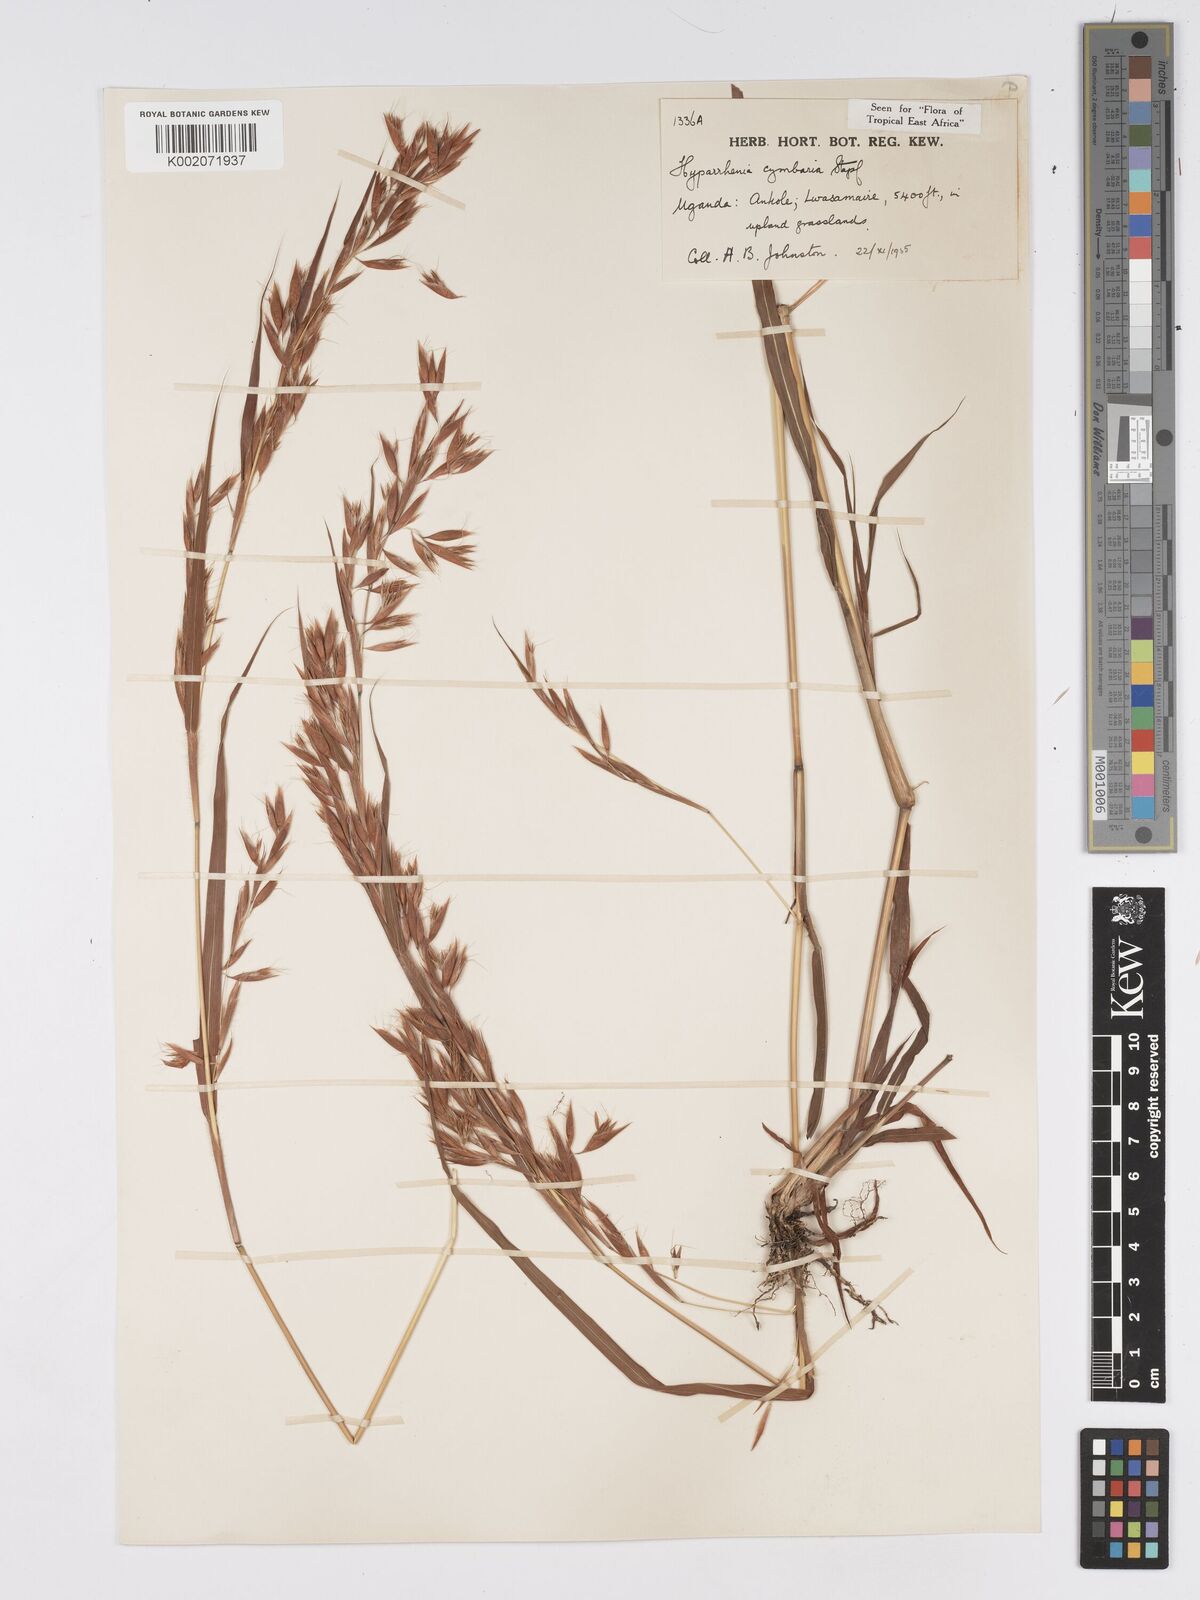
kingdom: Plantae
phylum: Tracheophyta
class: Liliopsida
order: Poales
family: Poaceae
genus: Hyparrhenia
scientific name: Hyparrhenia cymbaria
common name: Boat thatching grass
